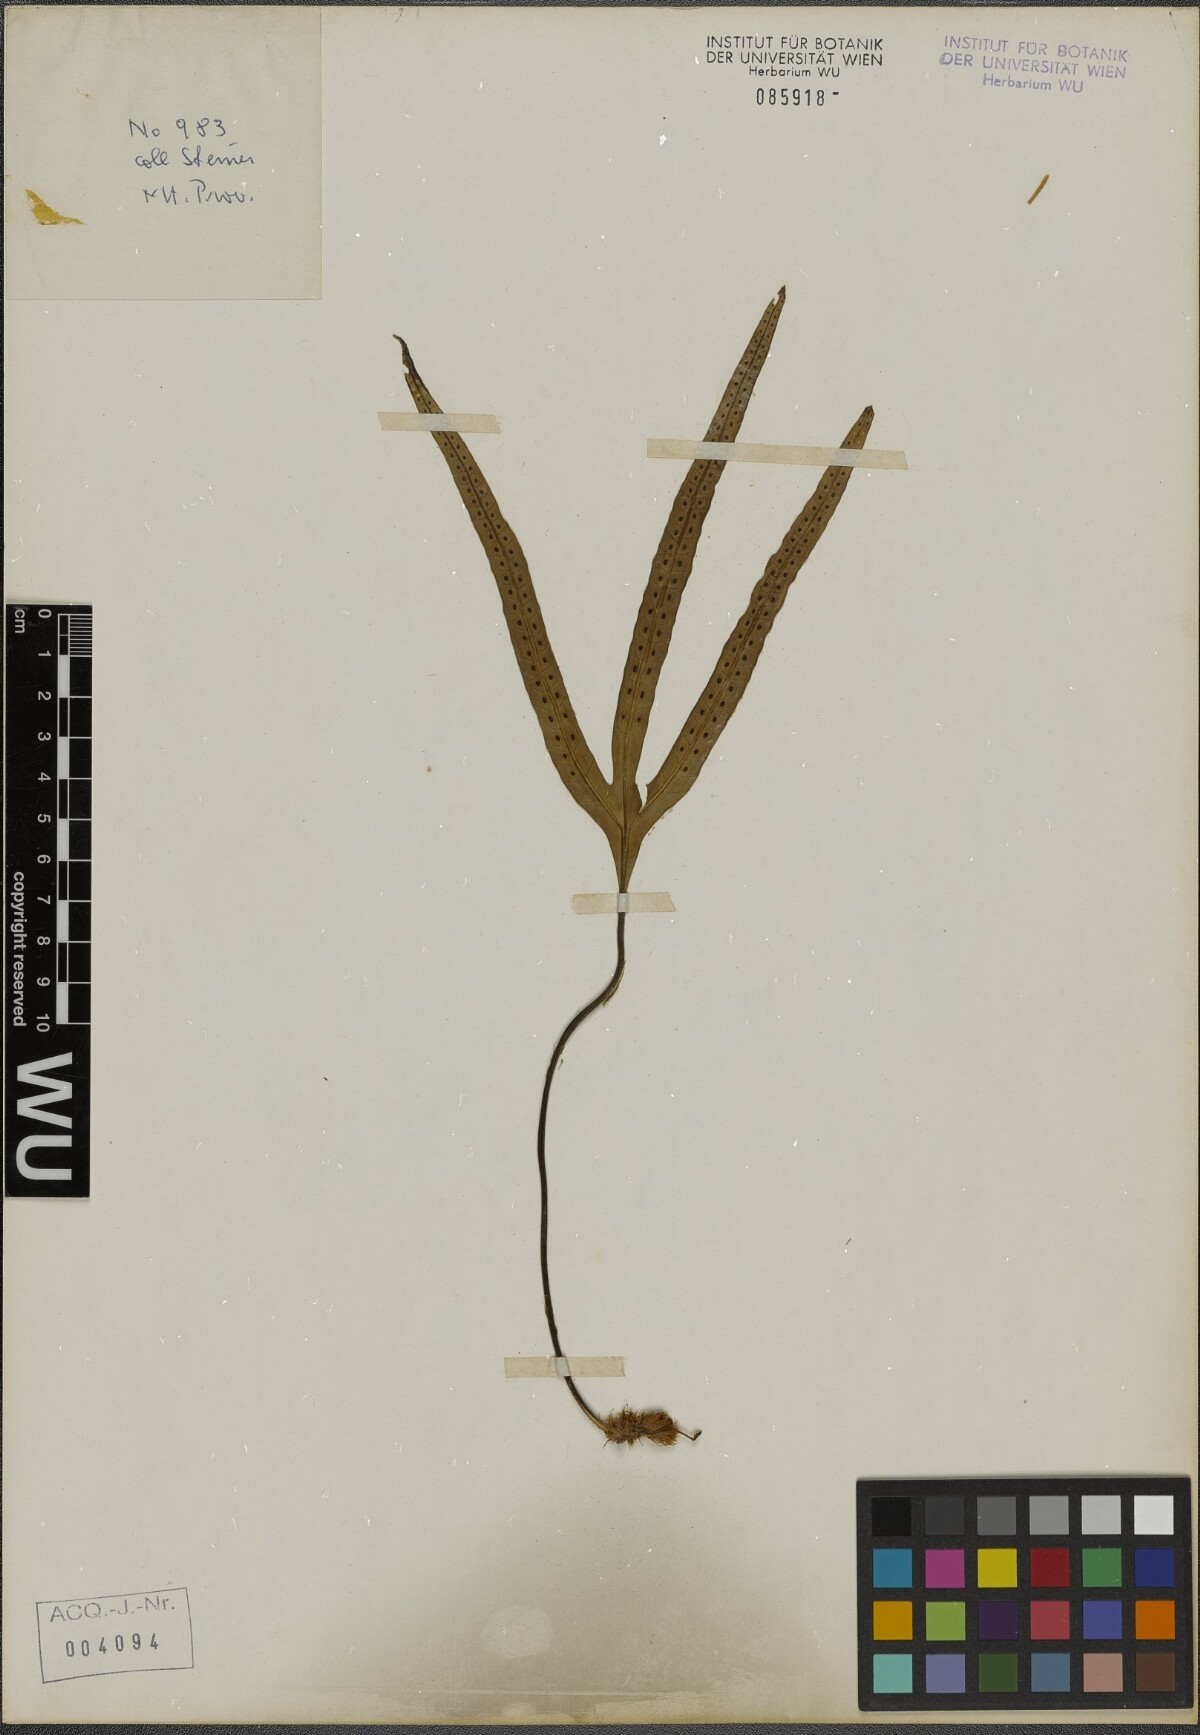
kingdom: Plantae
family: Pteridophyta
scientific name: Pteridophyta
